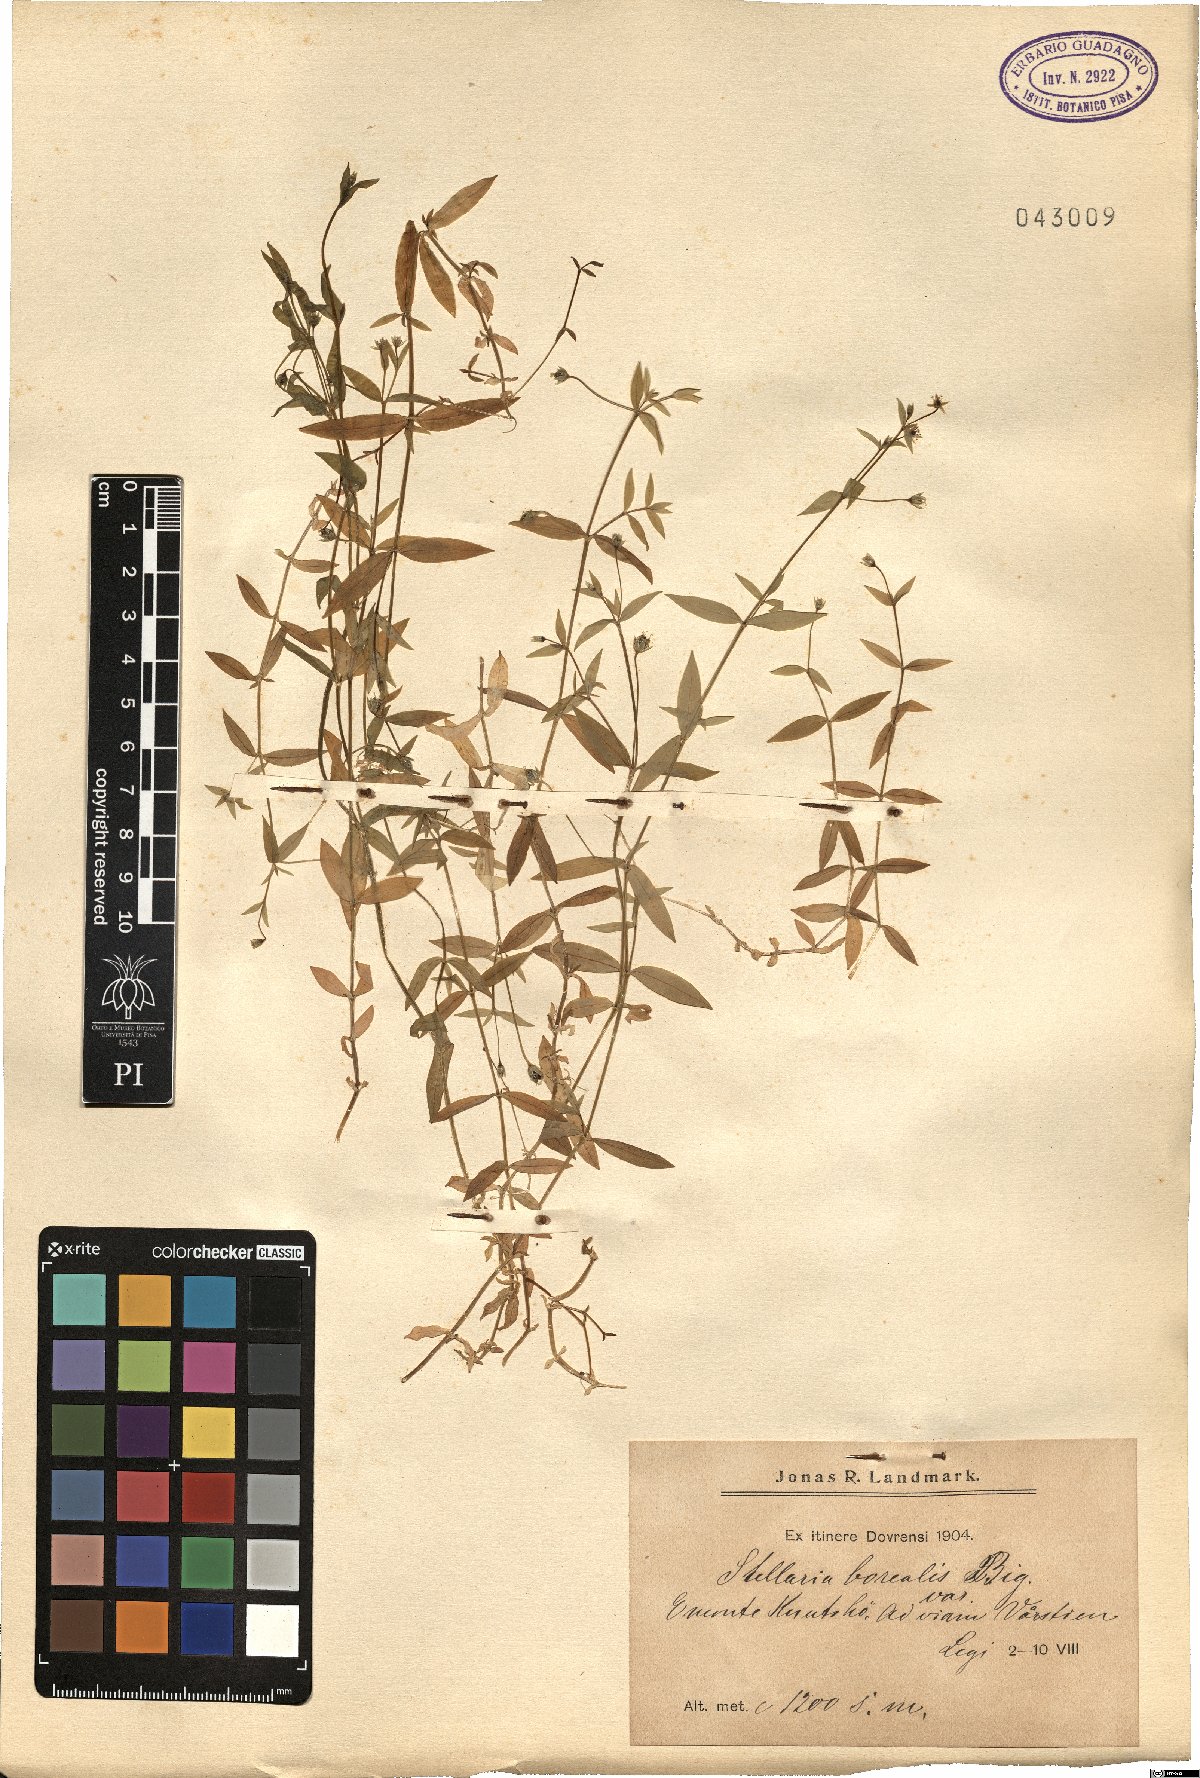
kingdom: Plantae
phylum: Tracheophyta
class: Magnoliopsida
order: Caryophyllales
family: Caryophyllaceae
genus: Stellaria
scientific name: Stellaria borealis
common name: Boreal starwort
